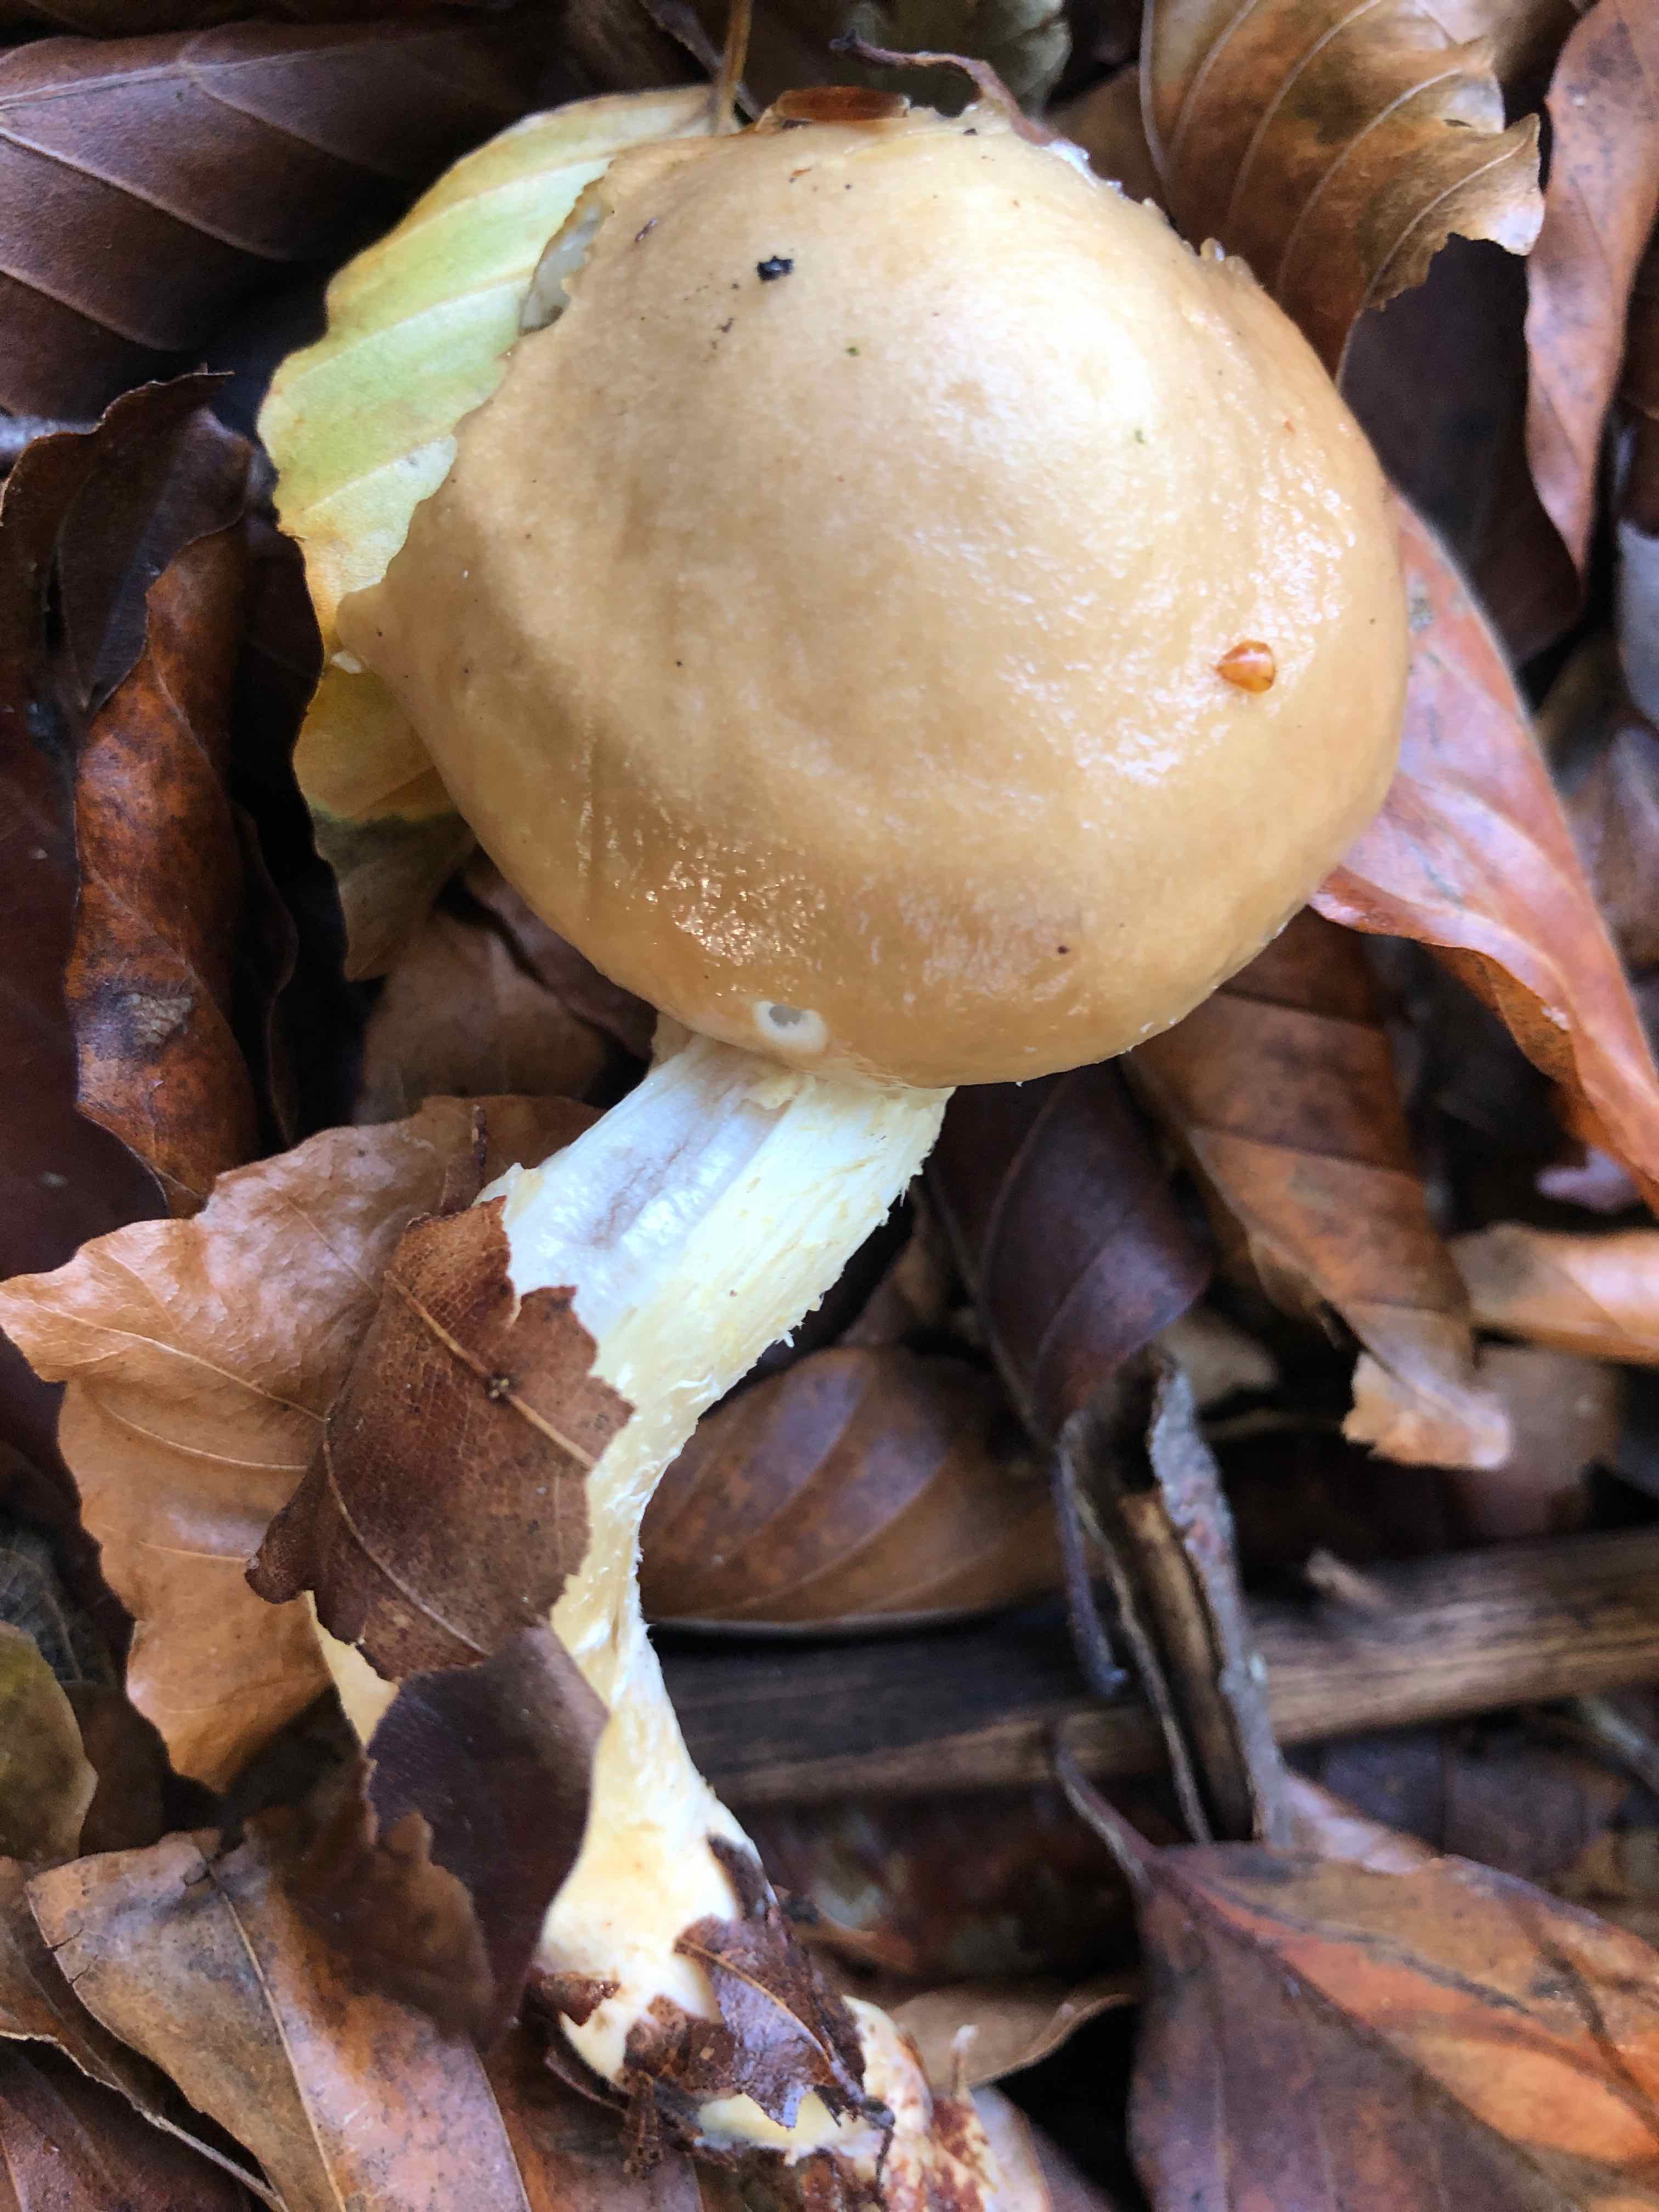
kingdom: Fungi
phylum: Basidiomycota
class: Agaricomycetes
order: Agaricales
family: Strophariaceae
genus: Stropharia
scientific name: Stropharia hornemannii
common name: nordisk bredblad
